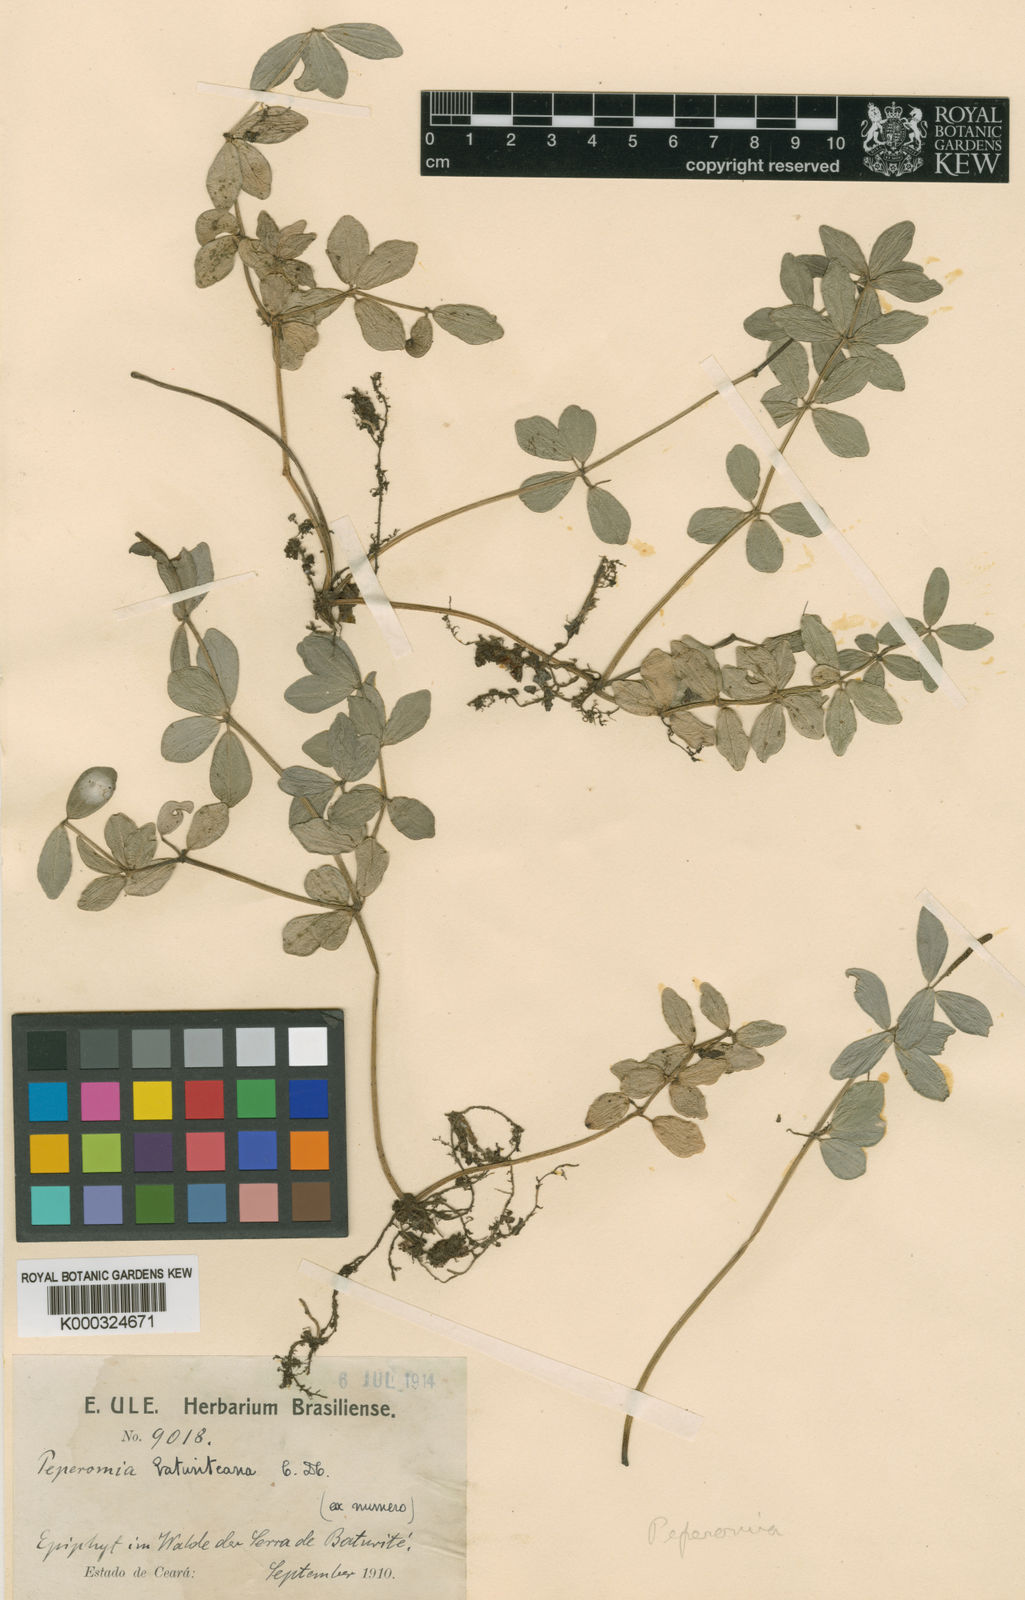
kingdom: Plantae
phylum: Tracheophyta
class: Magnoliopsida
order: Piperales
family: Piperaceae
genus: Peperomia
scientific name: Peperomia tetraphylla
